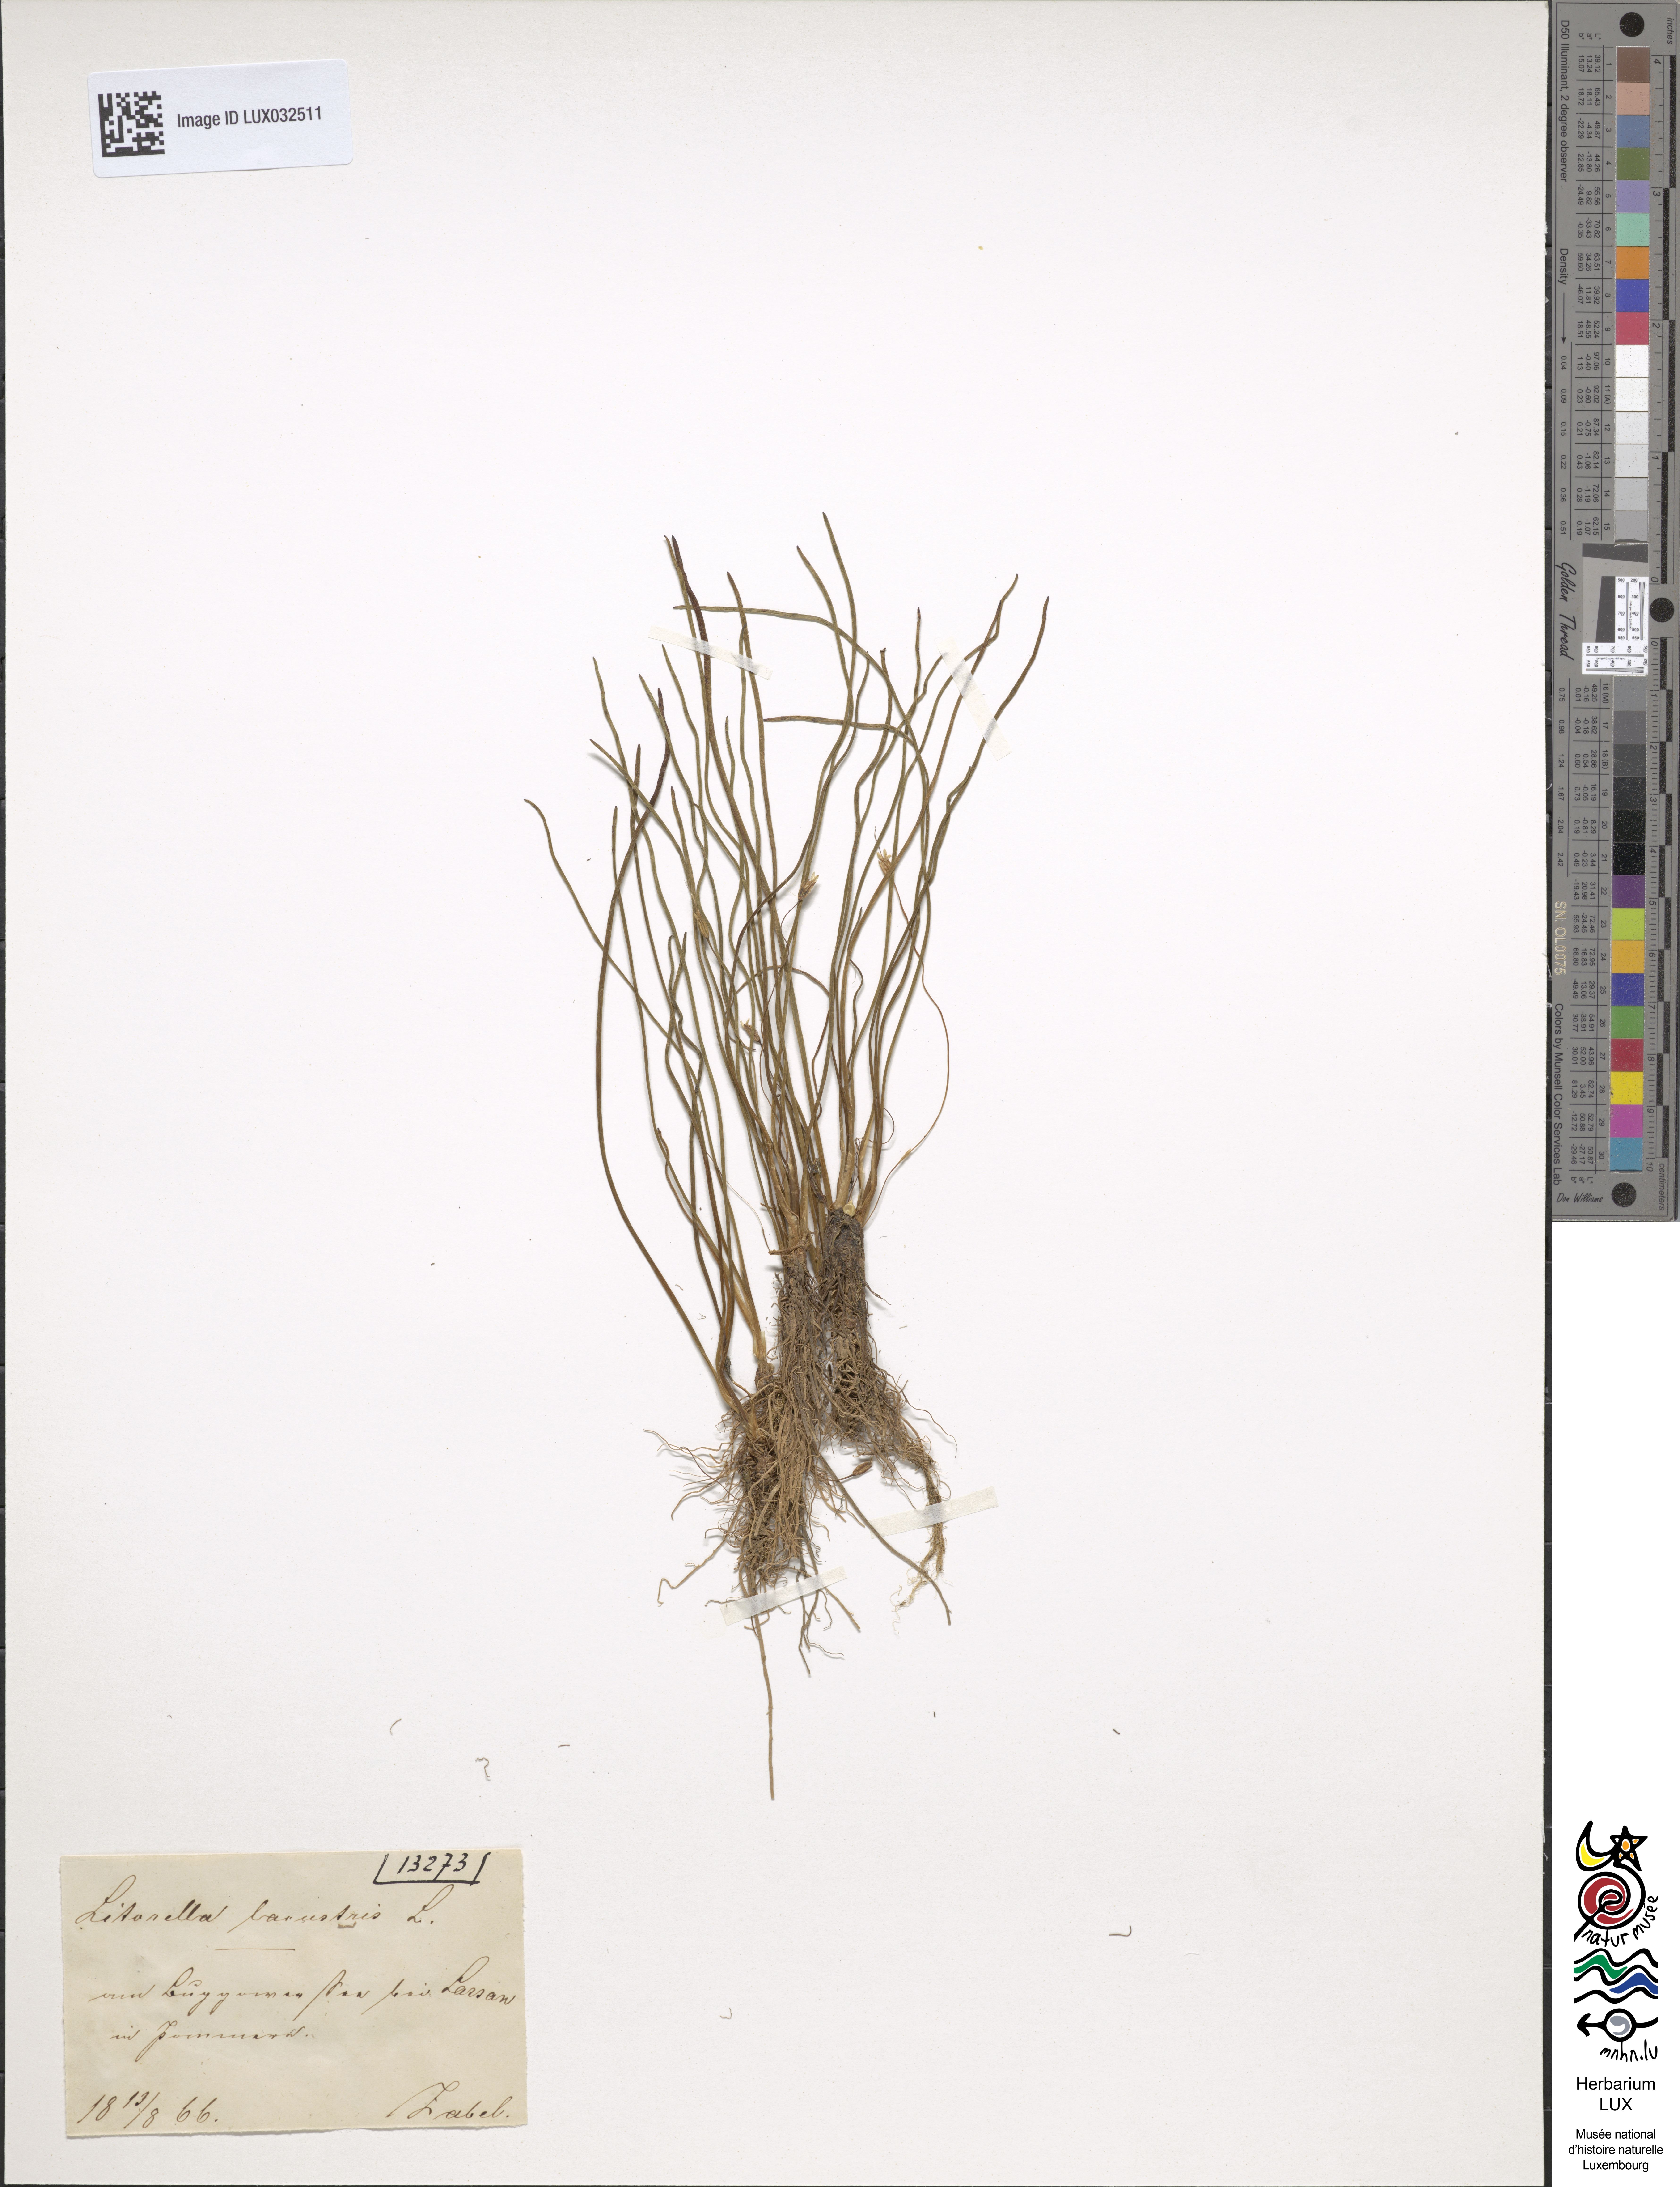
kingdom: Plantae
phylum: Tracheophyta
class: Magnoliopsida
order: Lamiales
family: Plantaginaceae
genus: Littorella
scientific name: Littorella uniflora
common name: Shoreweed
